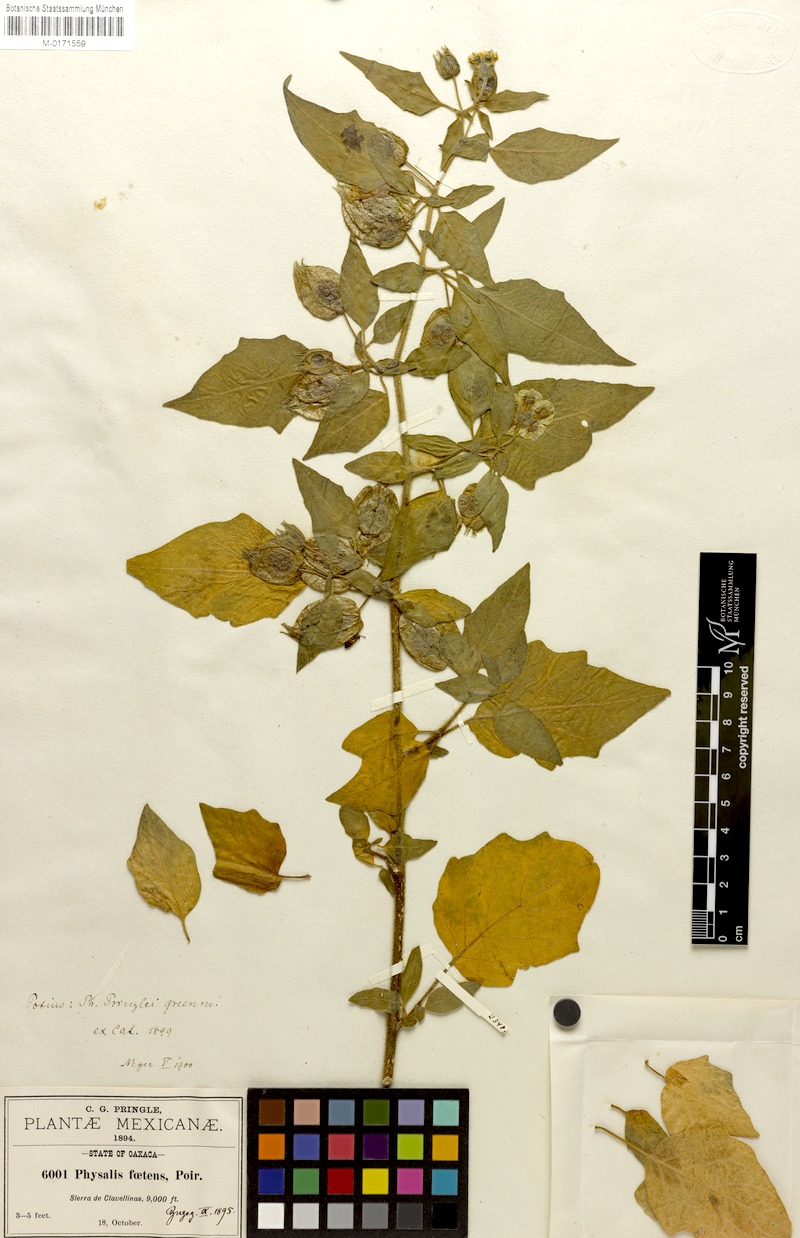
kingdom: Plantae
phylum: Tracheophyta
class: Magnoliopsida
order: Solanales
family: Solanaceae
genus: Physalis
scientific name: Physalis pringlei
